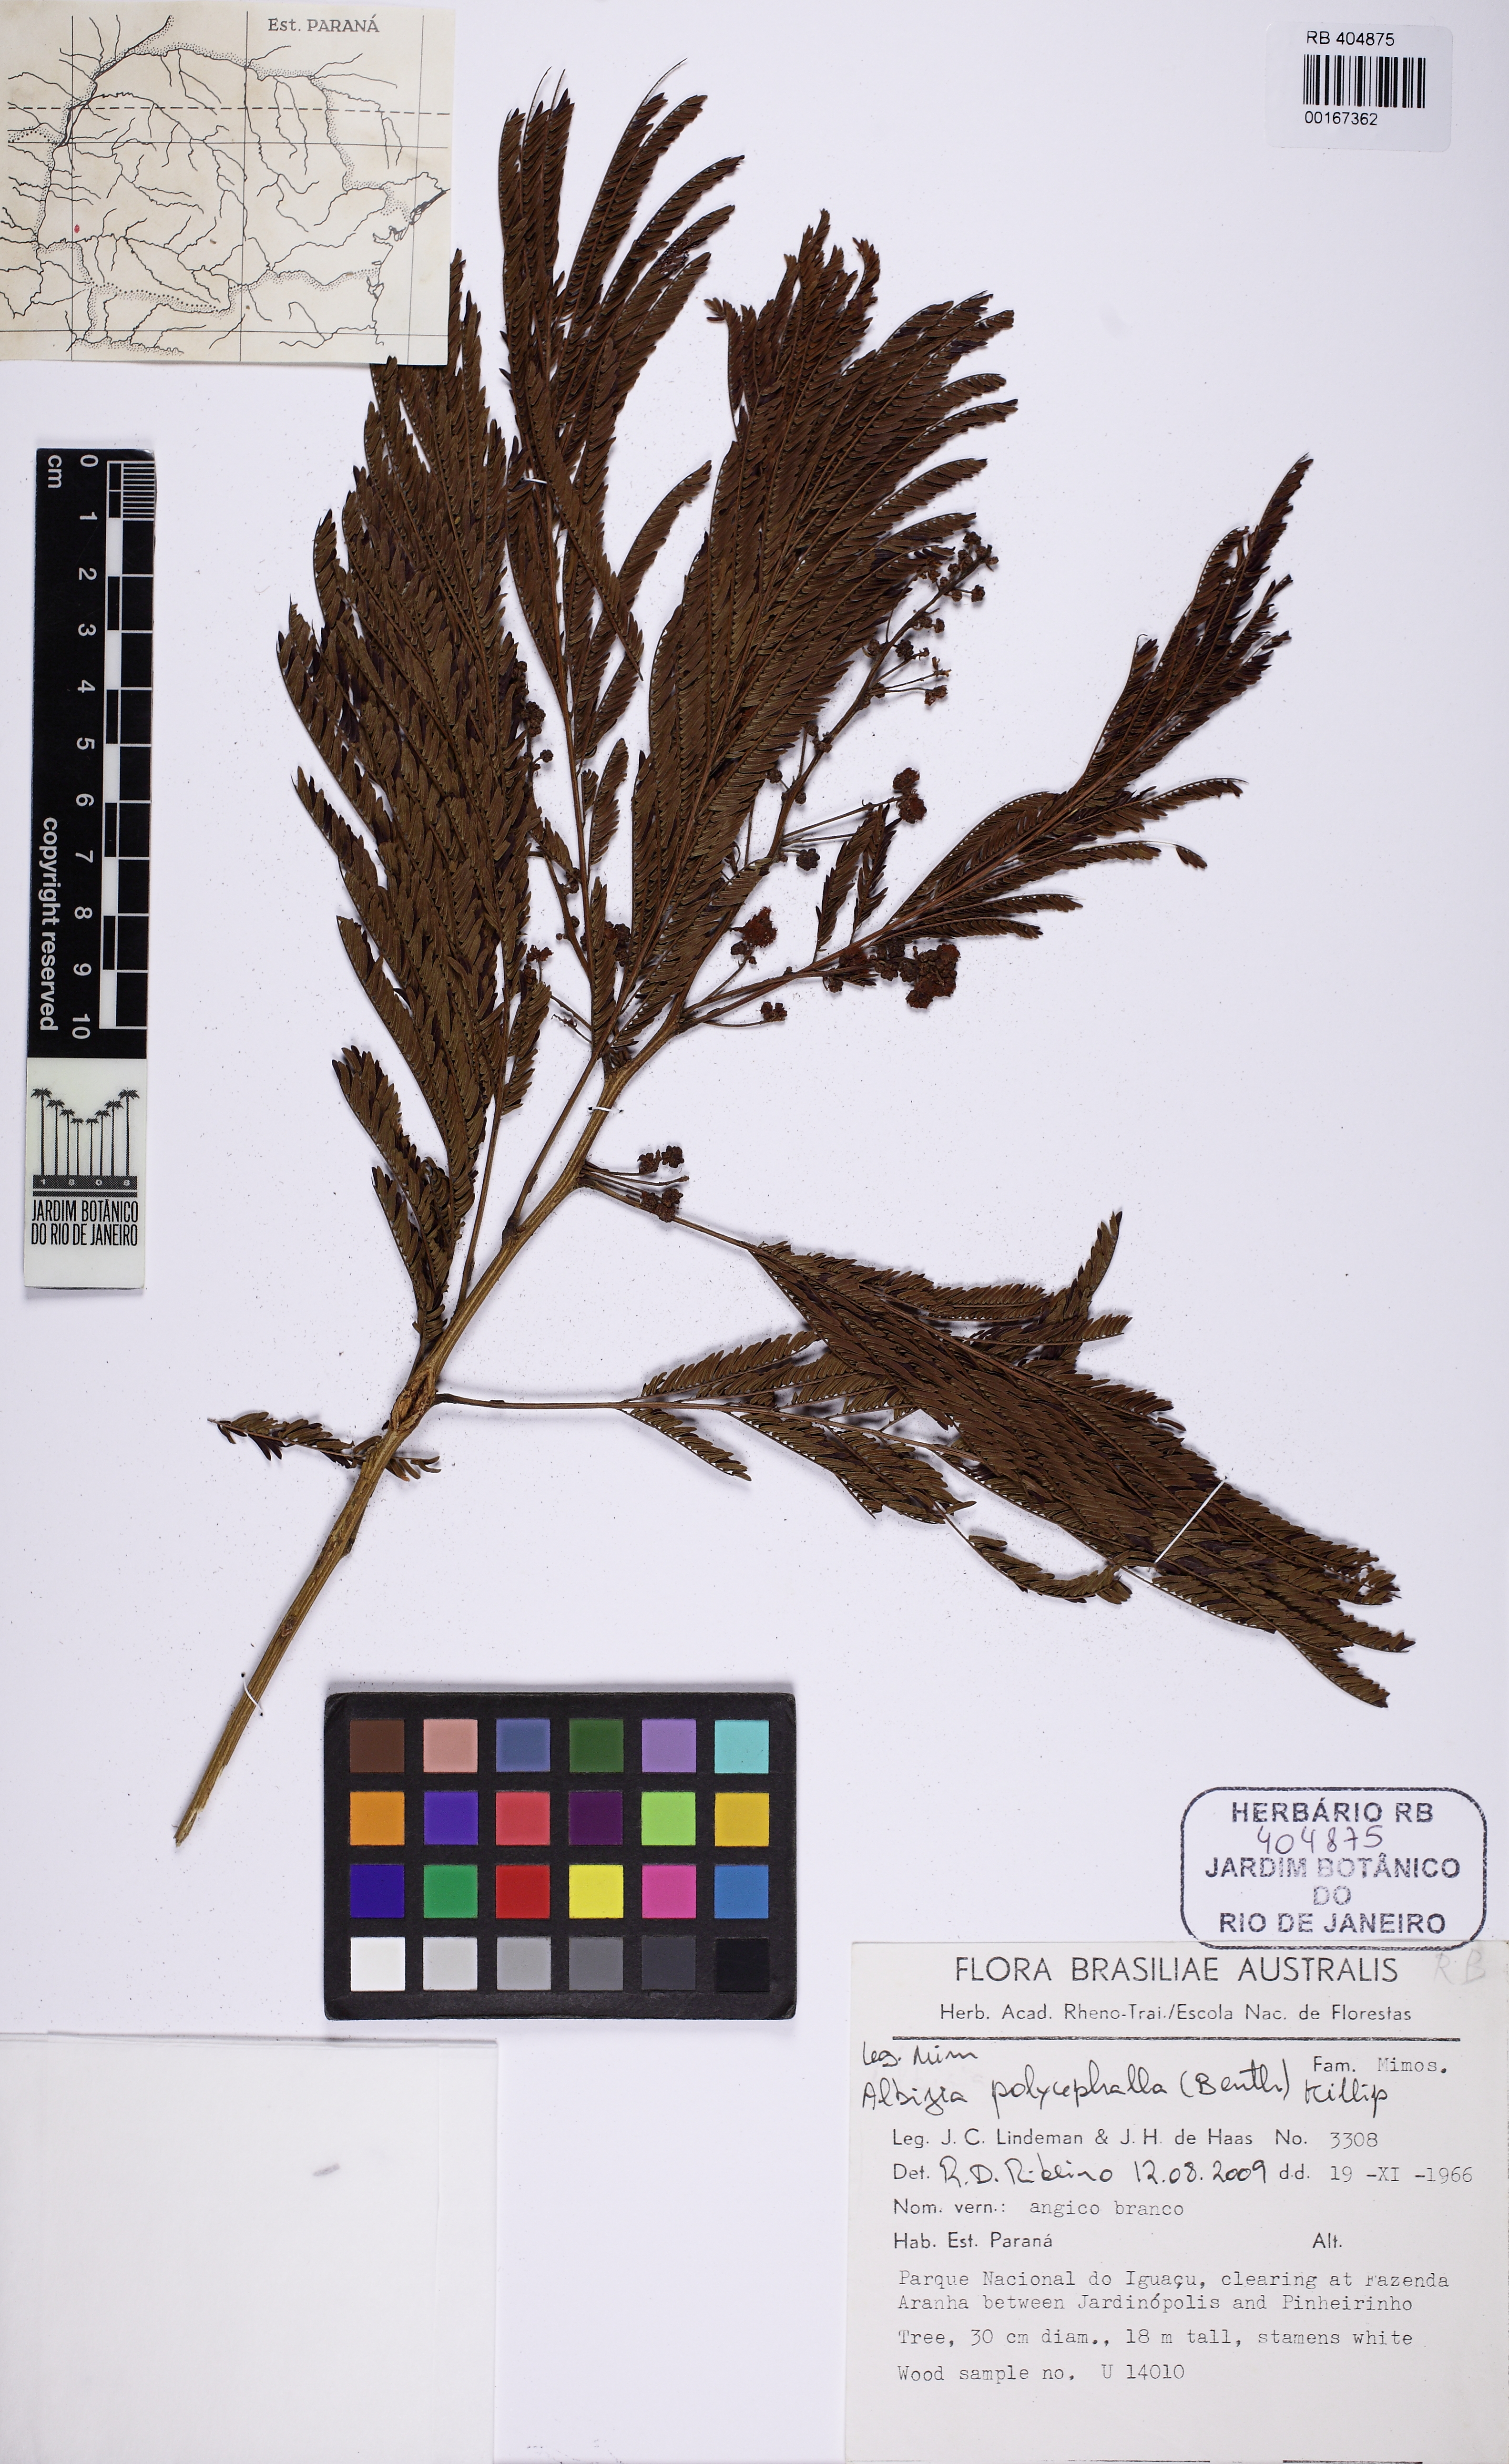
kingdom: Plantae
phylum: Tracheophyta
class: Magnoliopsida
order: Fabales
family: Fabaceae
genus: Albizia
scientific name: Albizia
